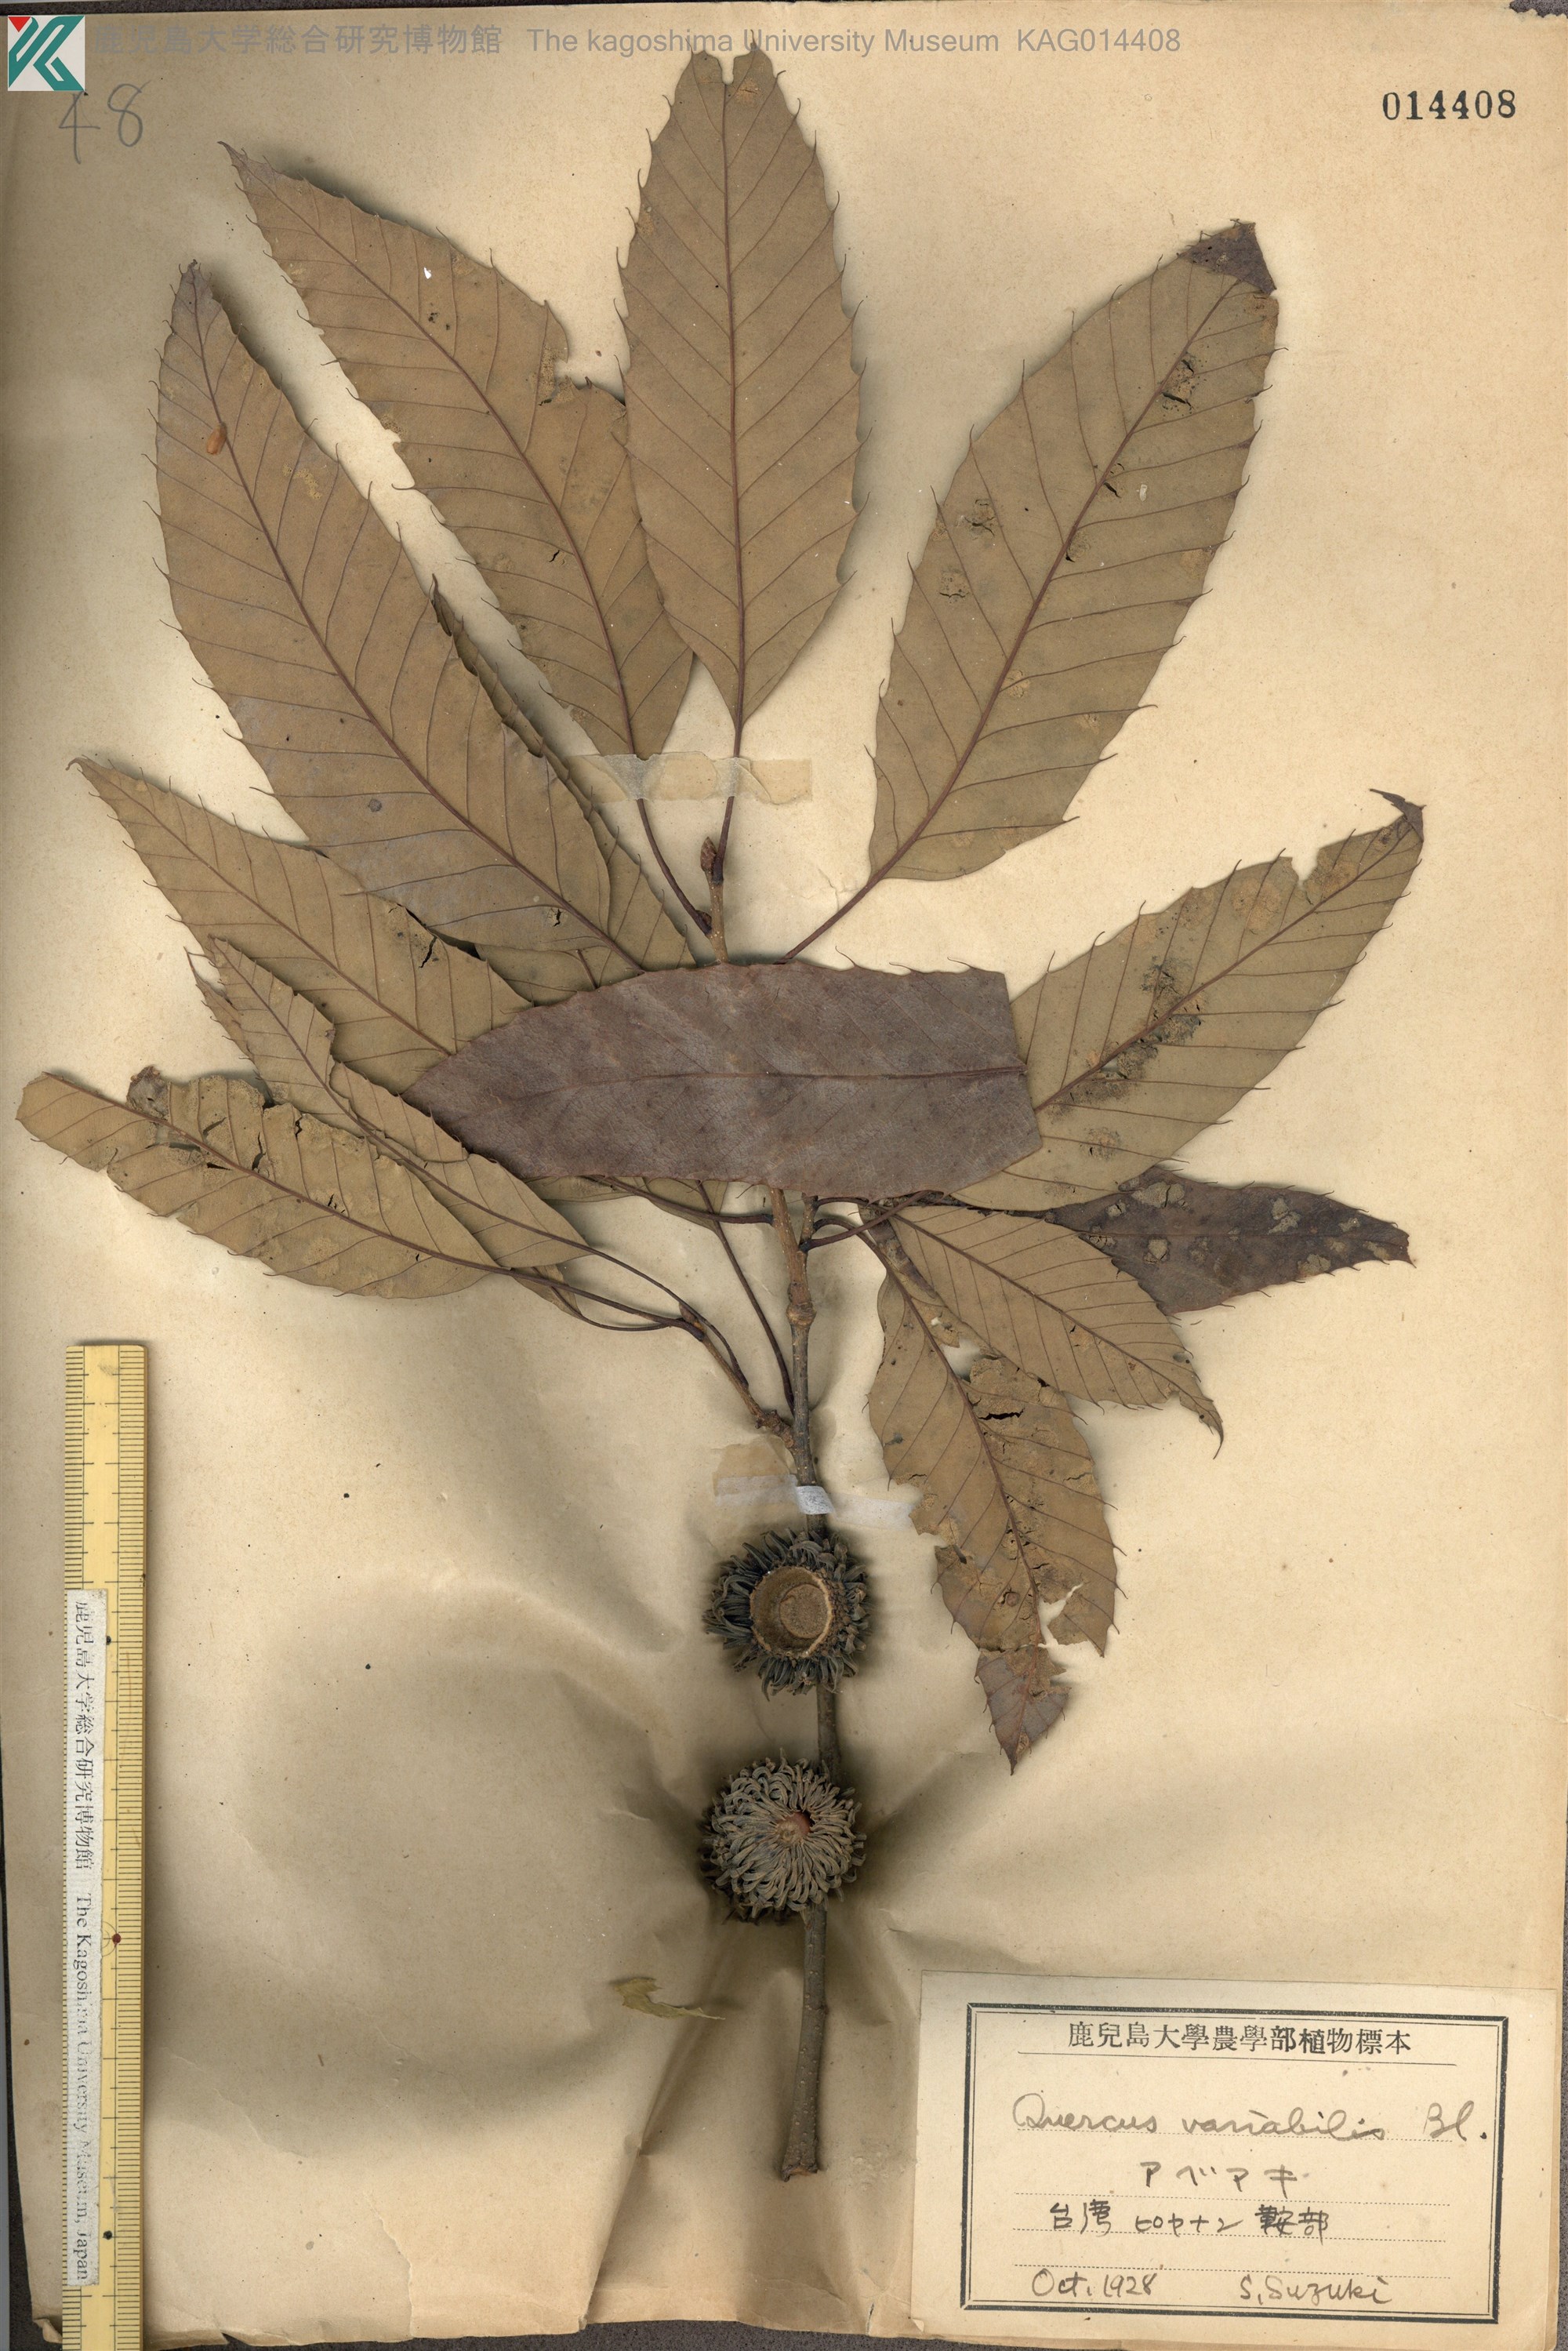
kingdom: Plantae
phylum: Tracheophyta
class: Magnoliopsida
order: Fagales
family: Fagaceae
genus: Quercus
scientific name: Quercus variabilis
